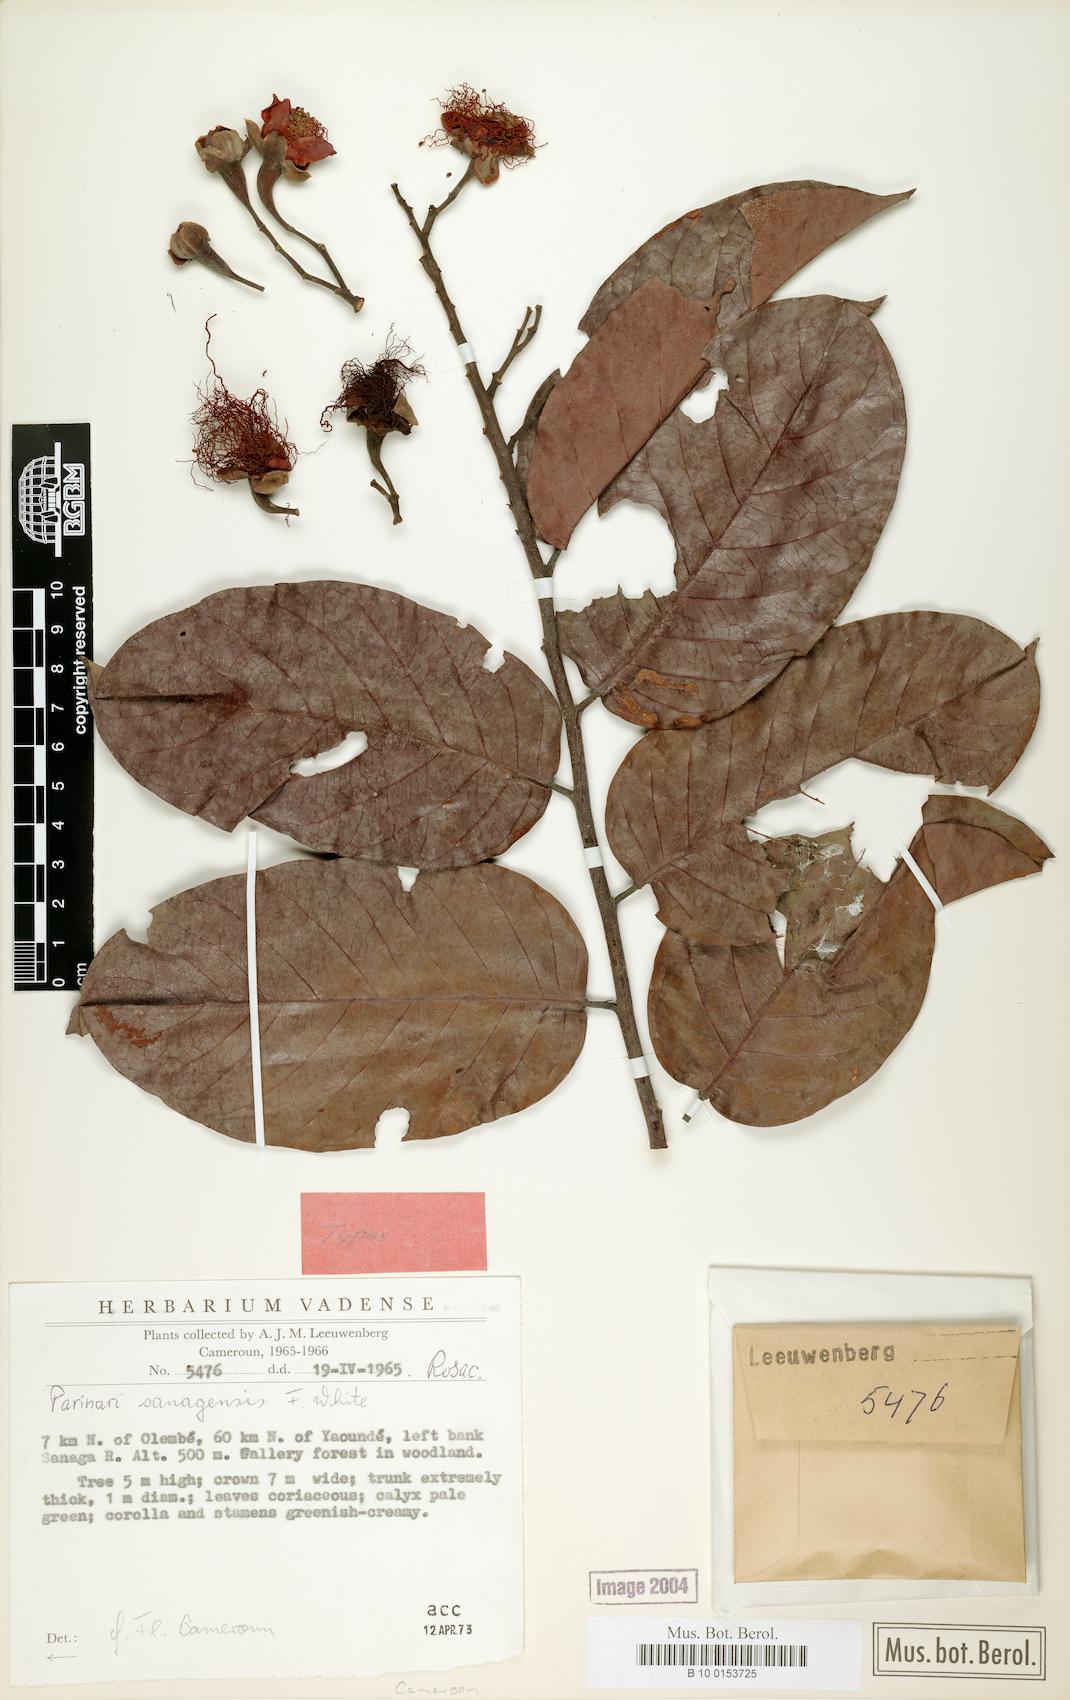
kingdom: Plantae
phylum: Tracheophyta
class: Magnoliopsida
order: Malpighiales
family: Chrysobalanaceae
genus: Parinari
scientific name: Parinari
